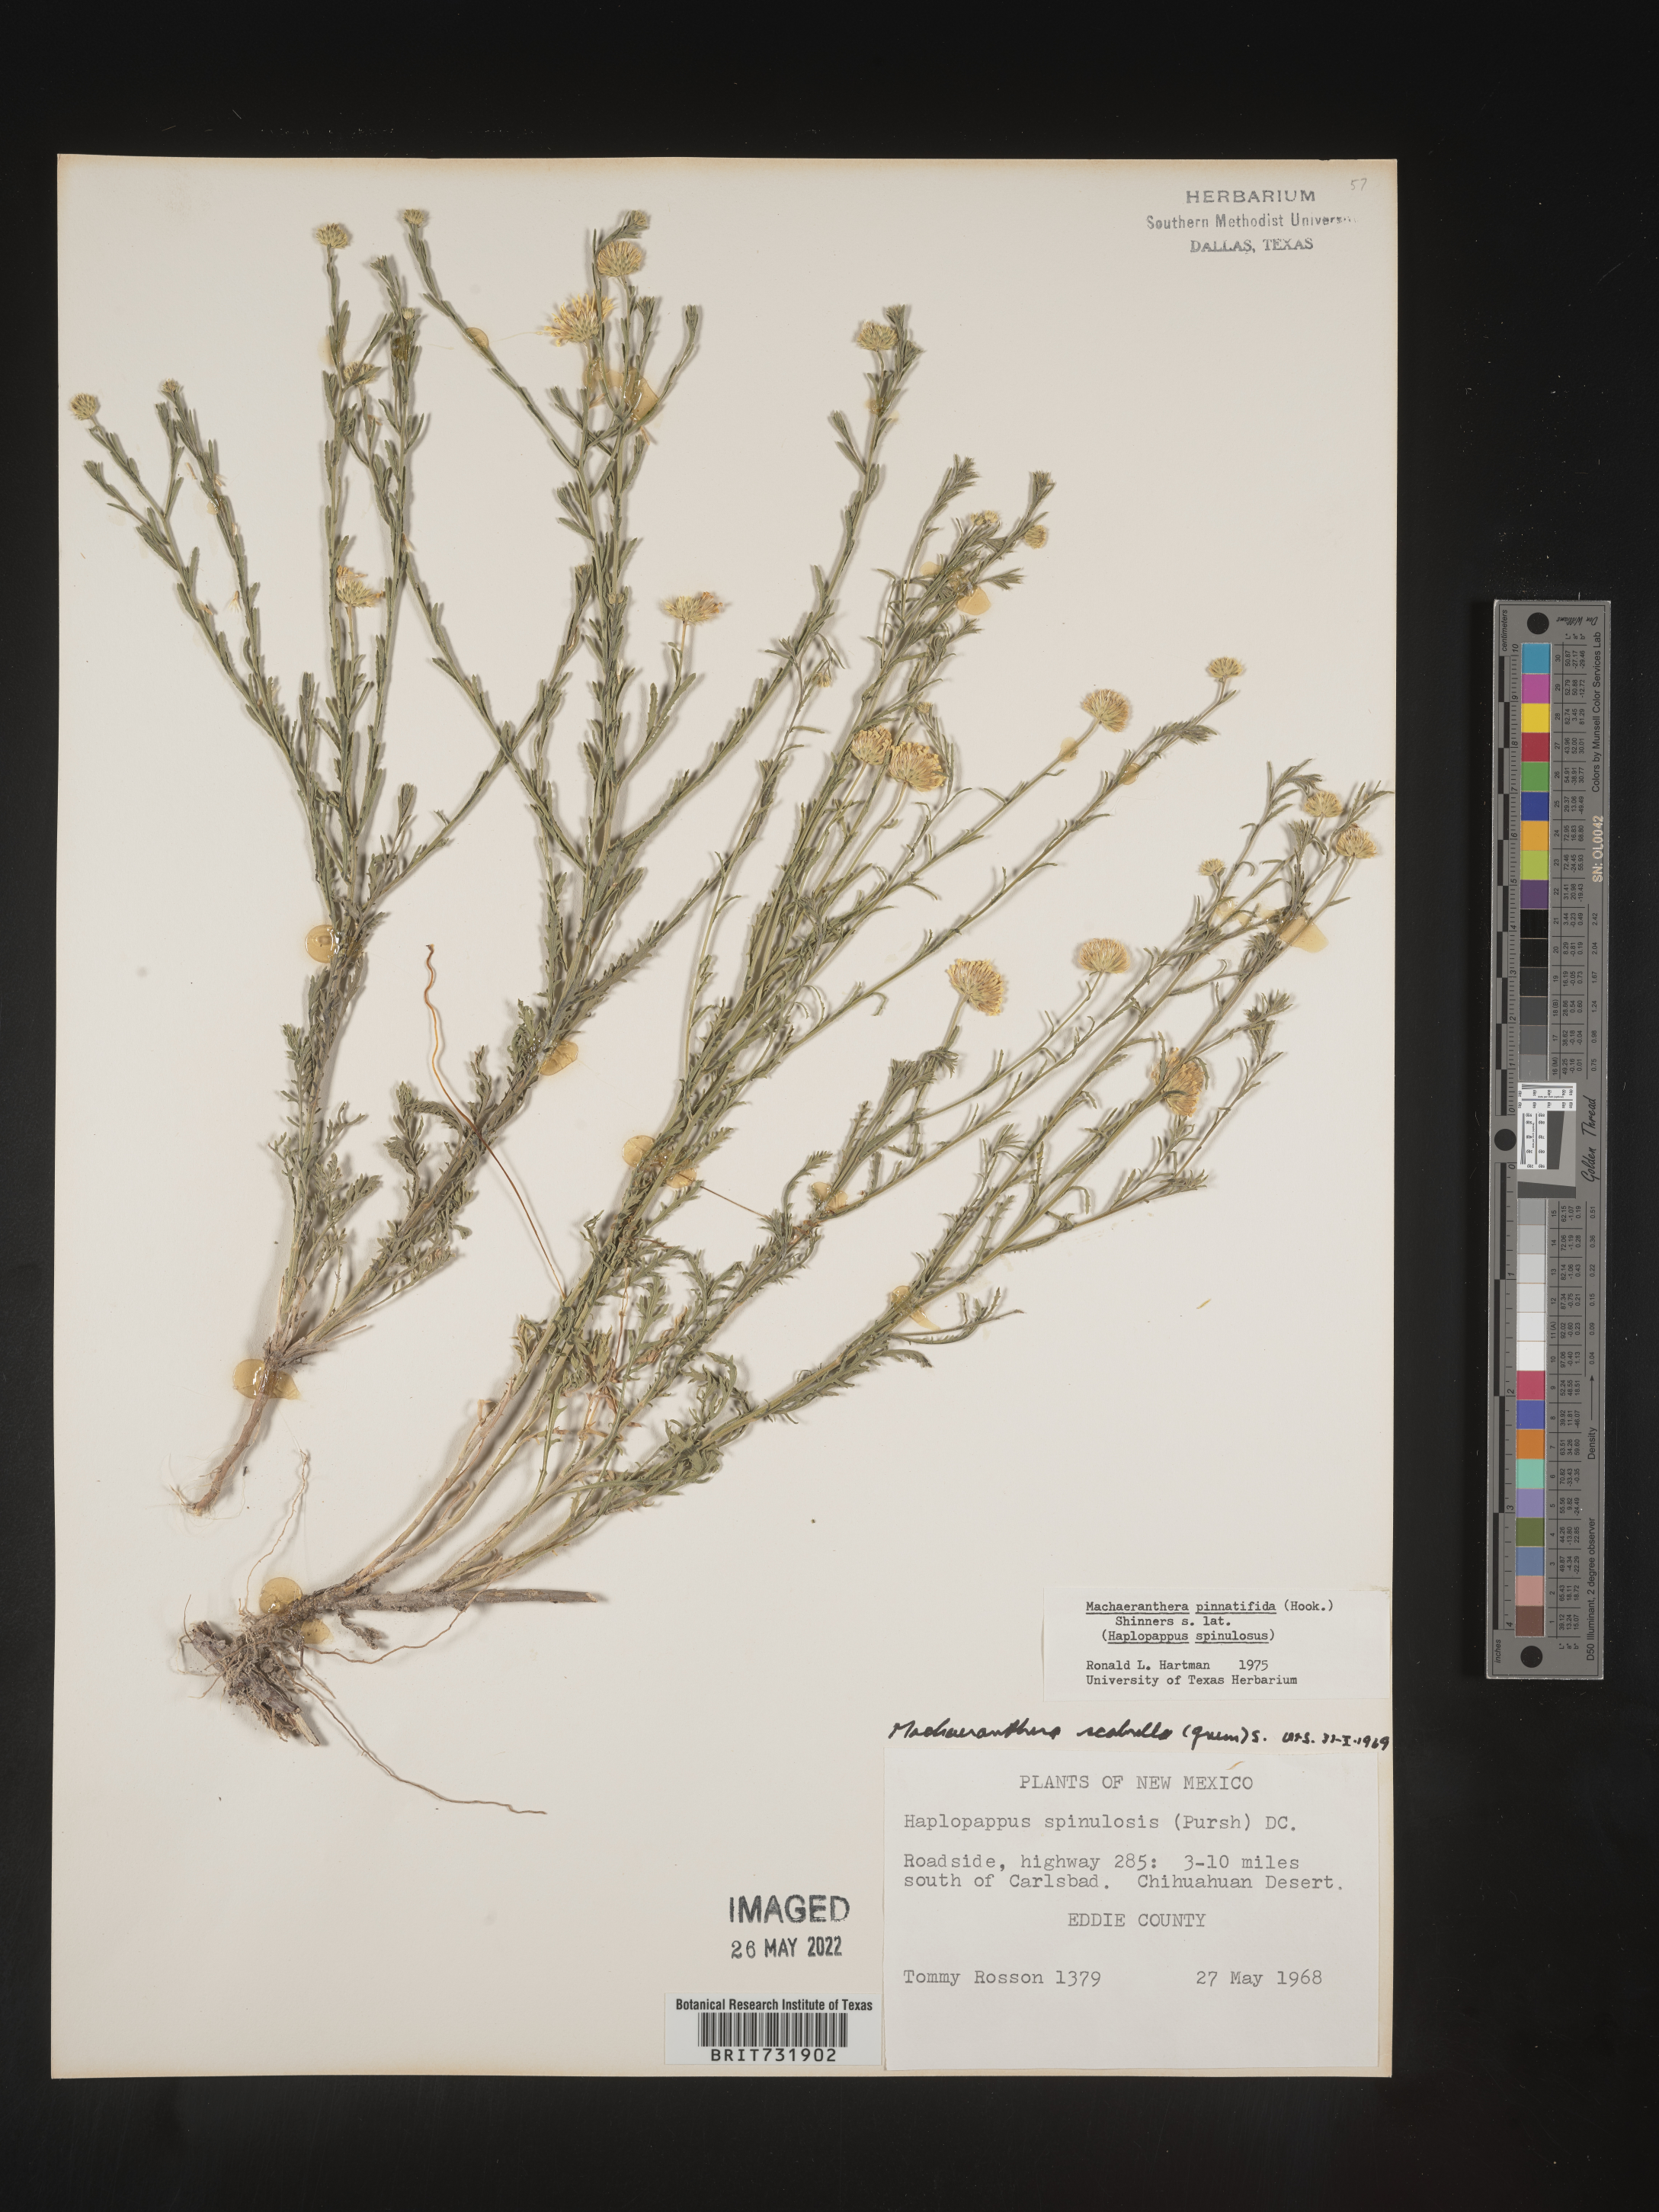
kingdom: Plantae
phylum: Tracheophyta
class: Magnoliopsida
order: Asterales
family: Asteraceae
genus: Xanthisma
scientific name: Xanthisma spinulosum
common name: Spiny goldenweed
